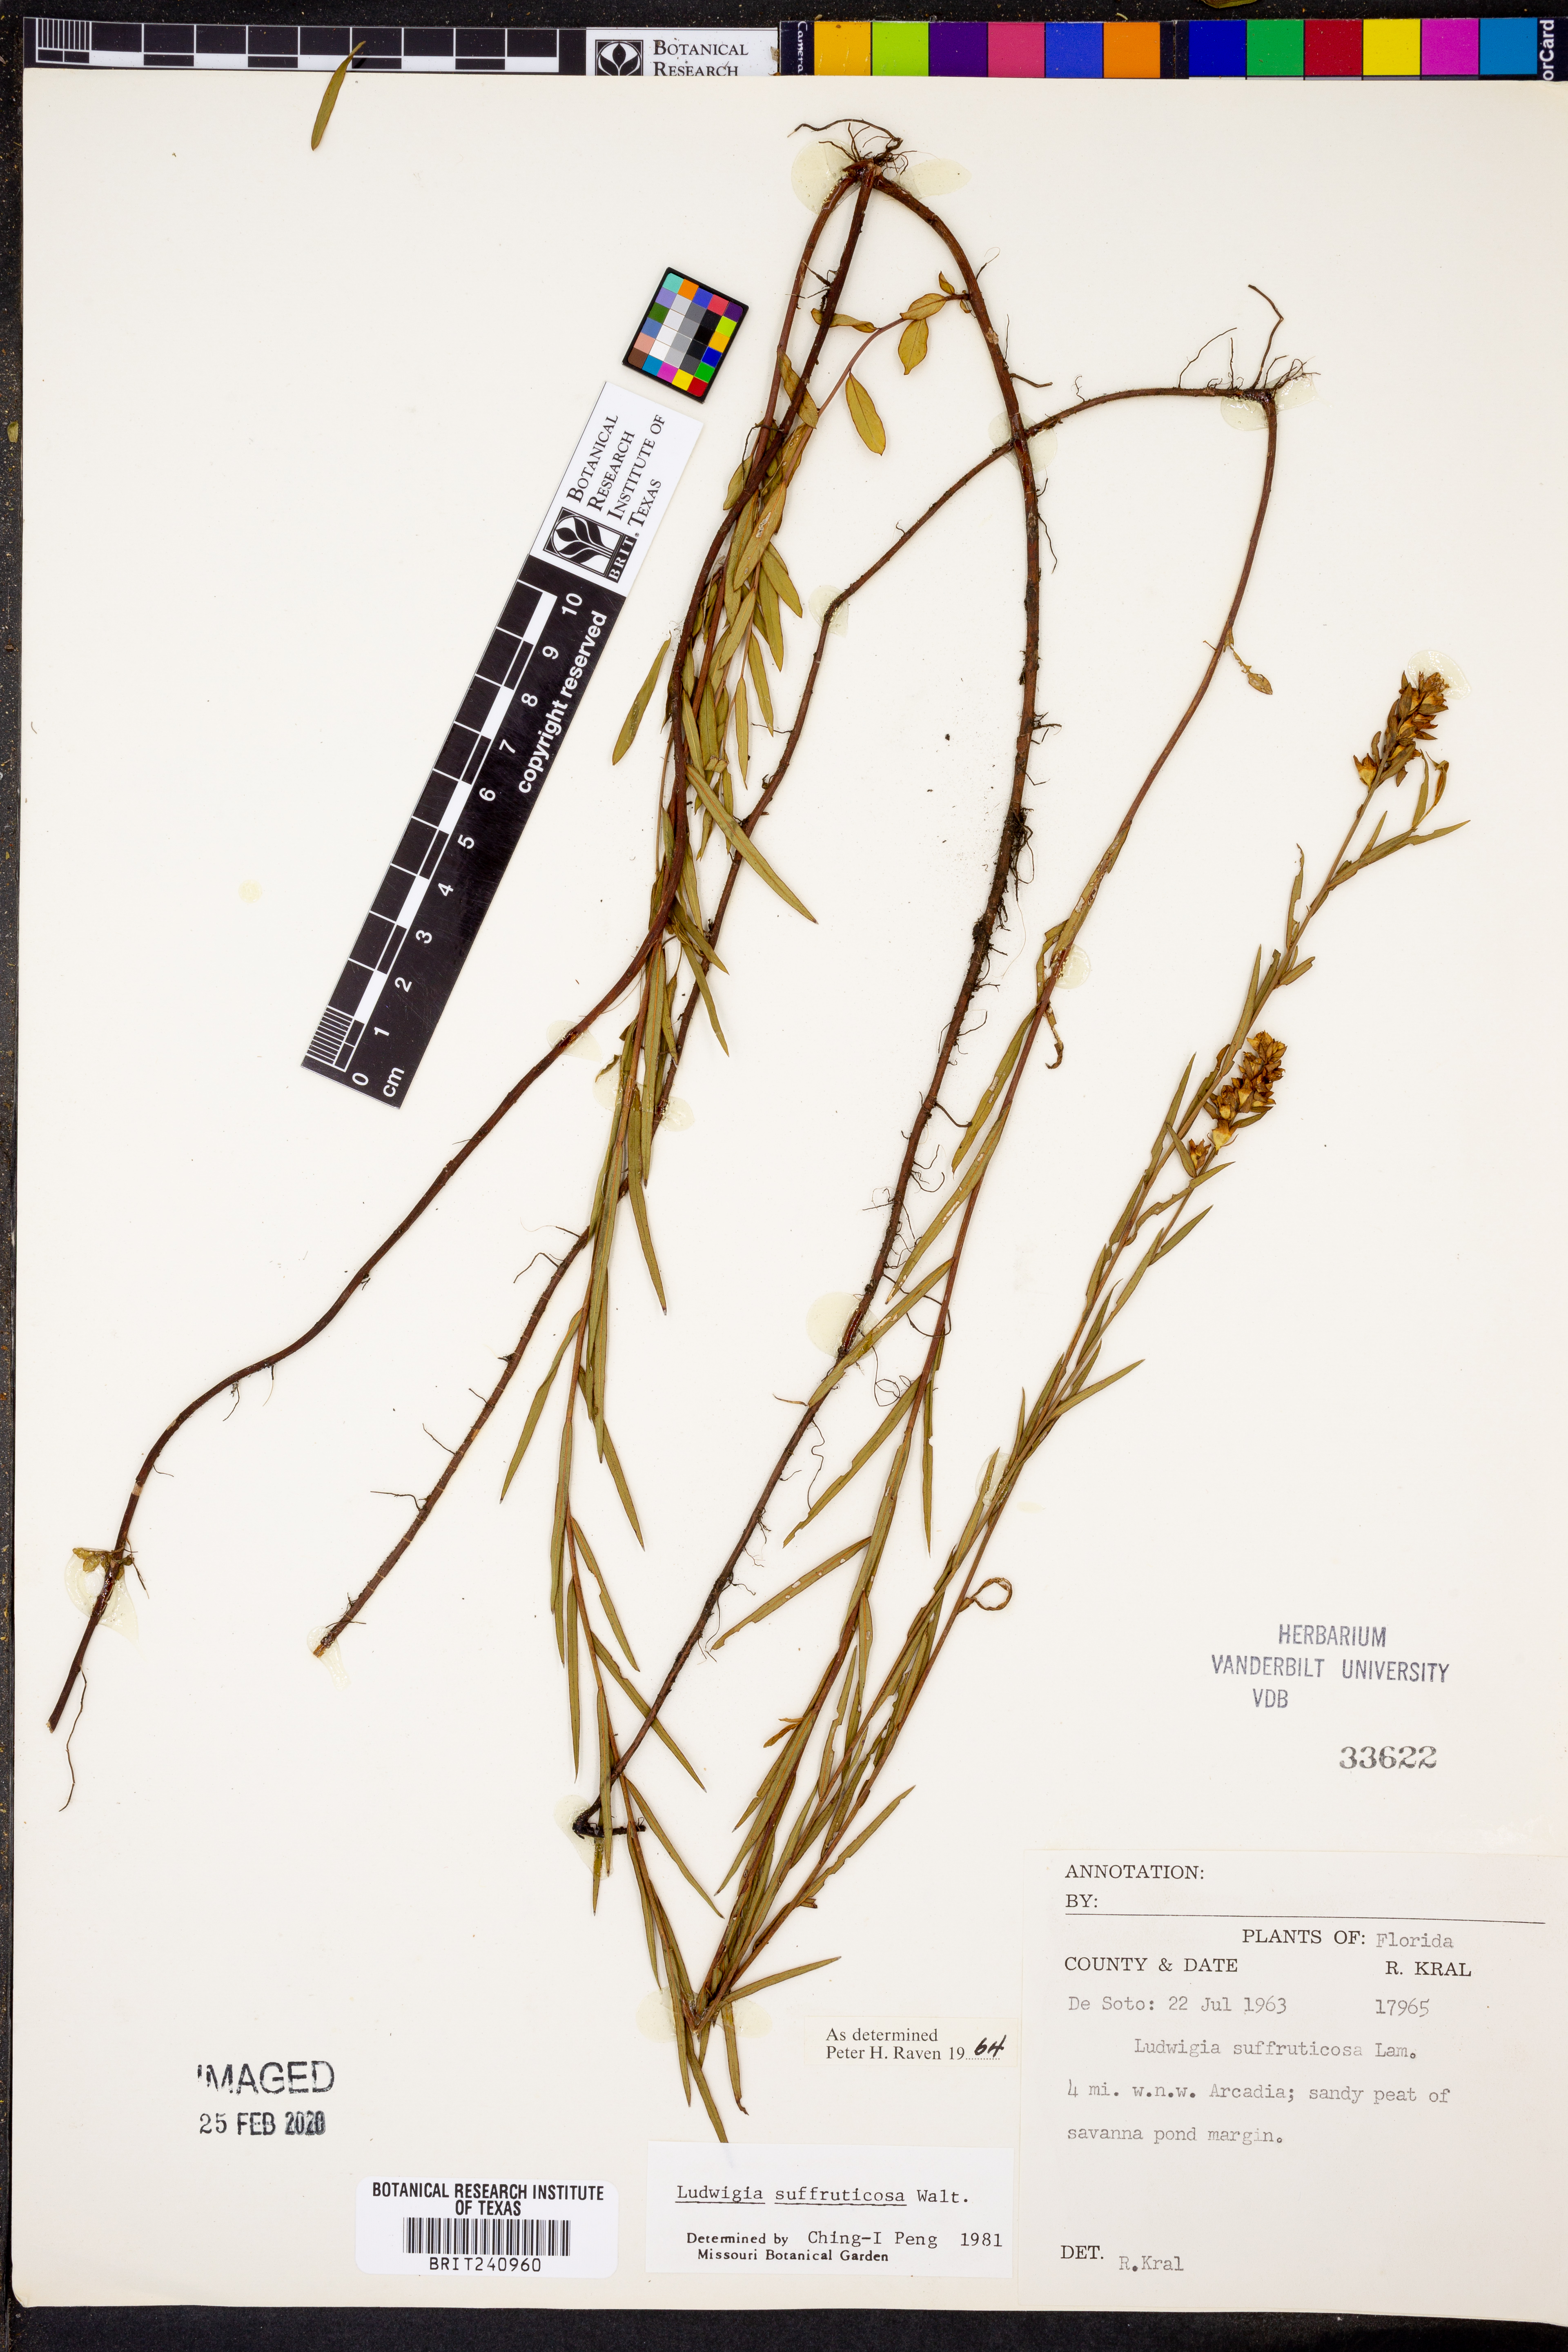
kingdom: Plantae
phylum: Tracheophyta
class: Magnoliopsida
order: Myrtales
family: Onagraceae
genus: Ludwigia
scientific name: Ludwigia suffruticosa
